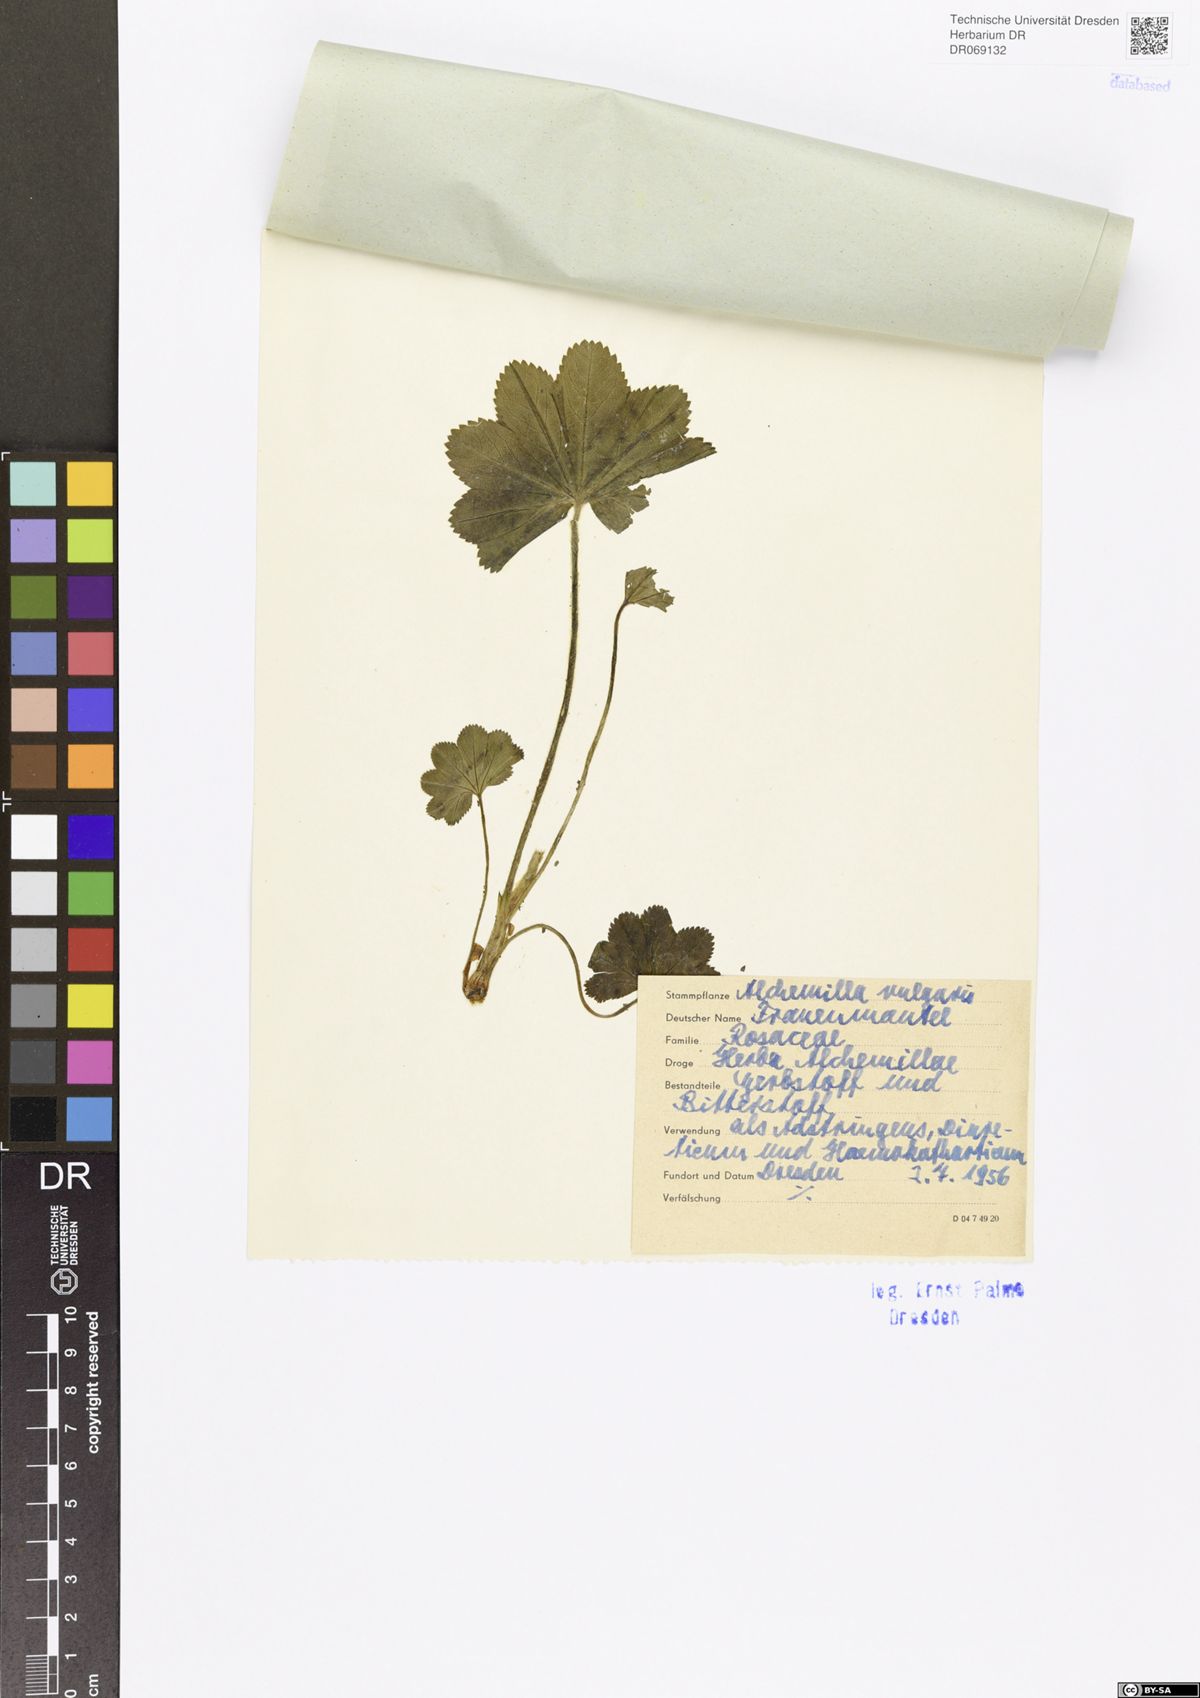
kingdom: Plantae
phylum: Tracheophyta
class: Magnoliopsida
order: Rosales
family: Rosaceae
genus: Alchemilla
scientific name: Alchemilla vulgaris
